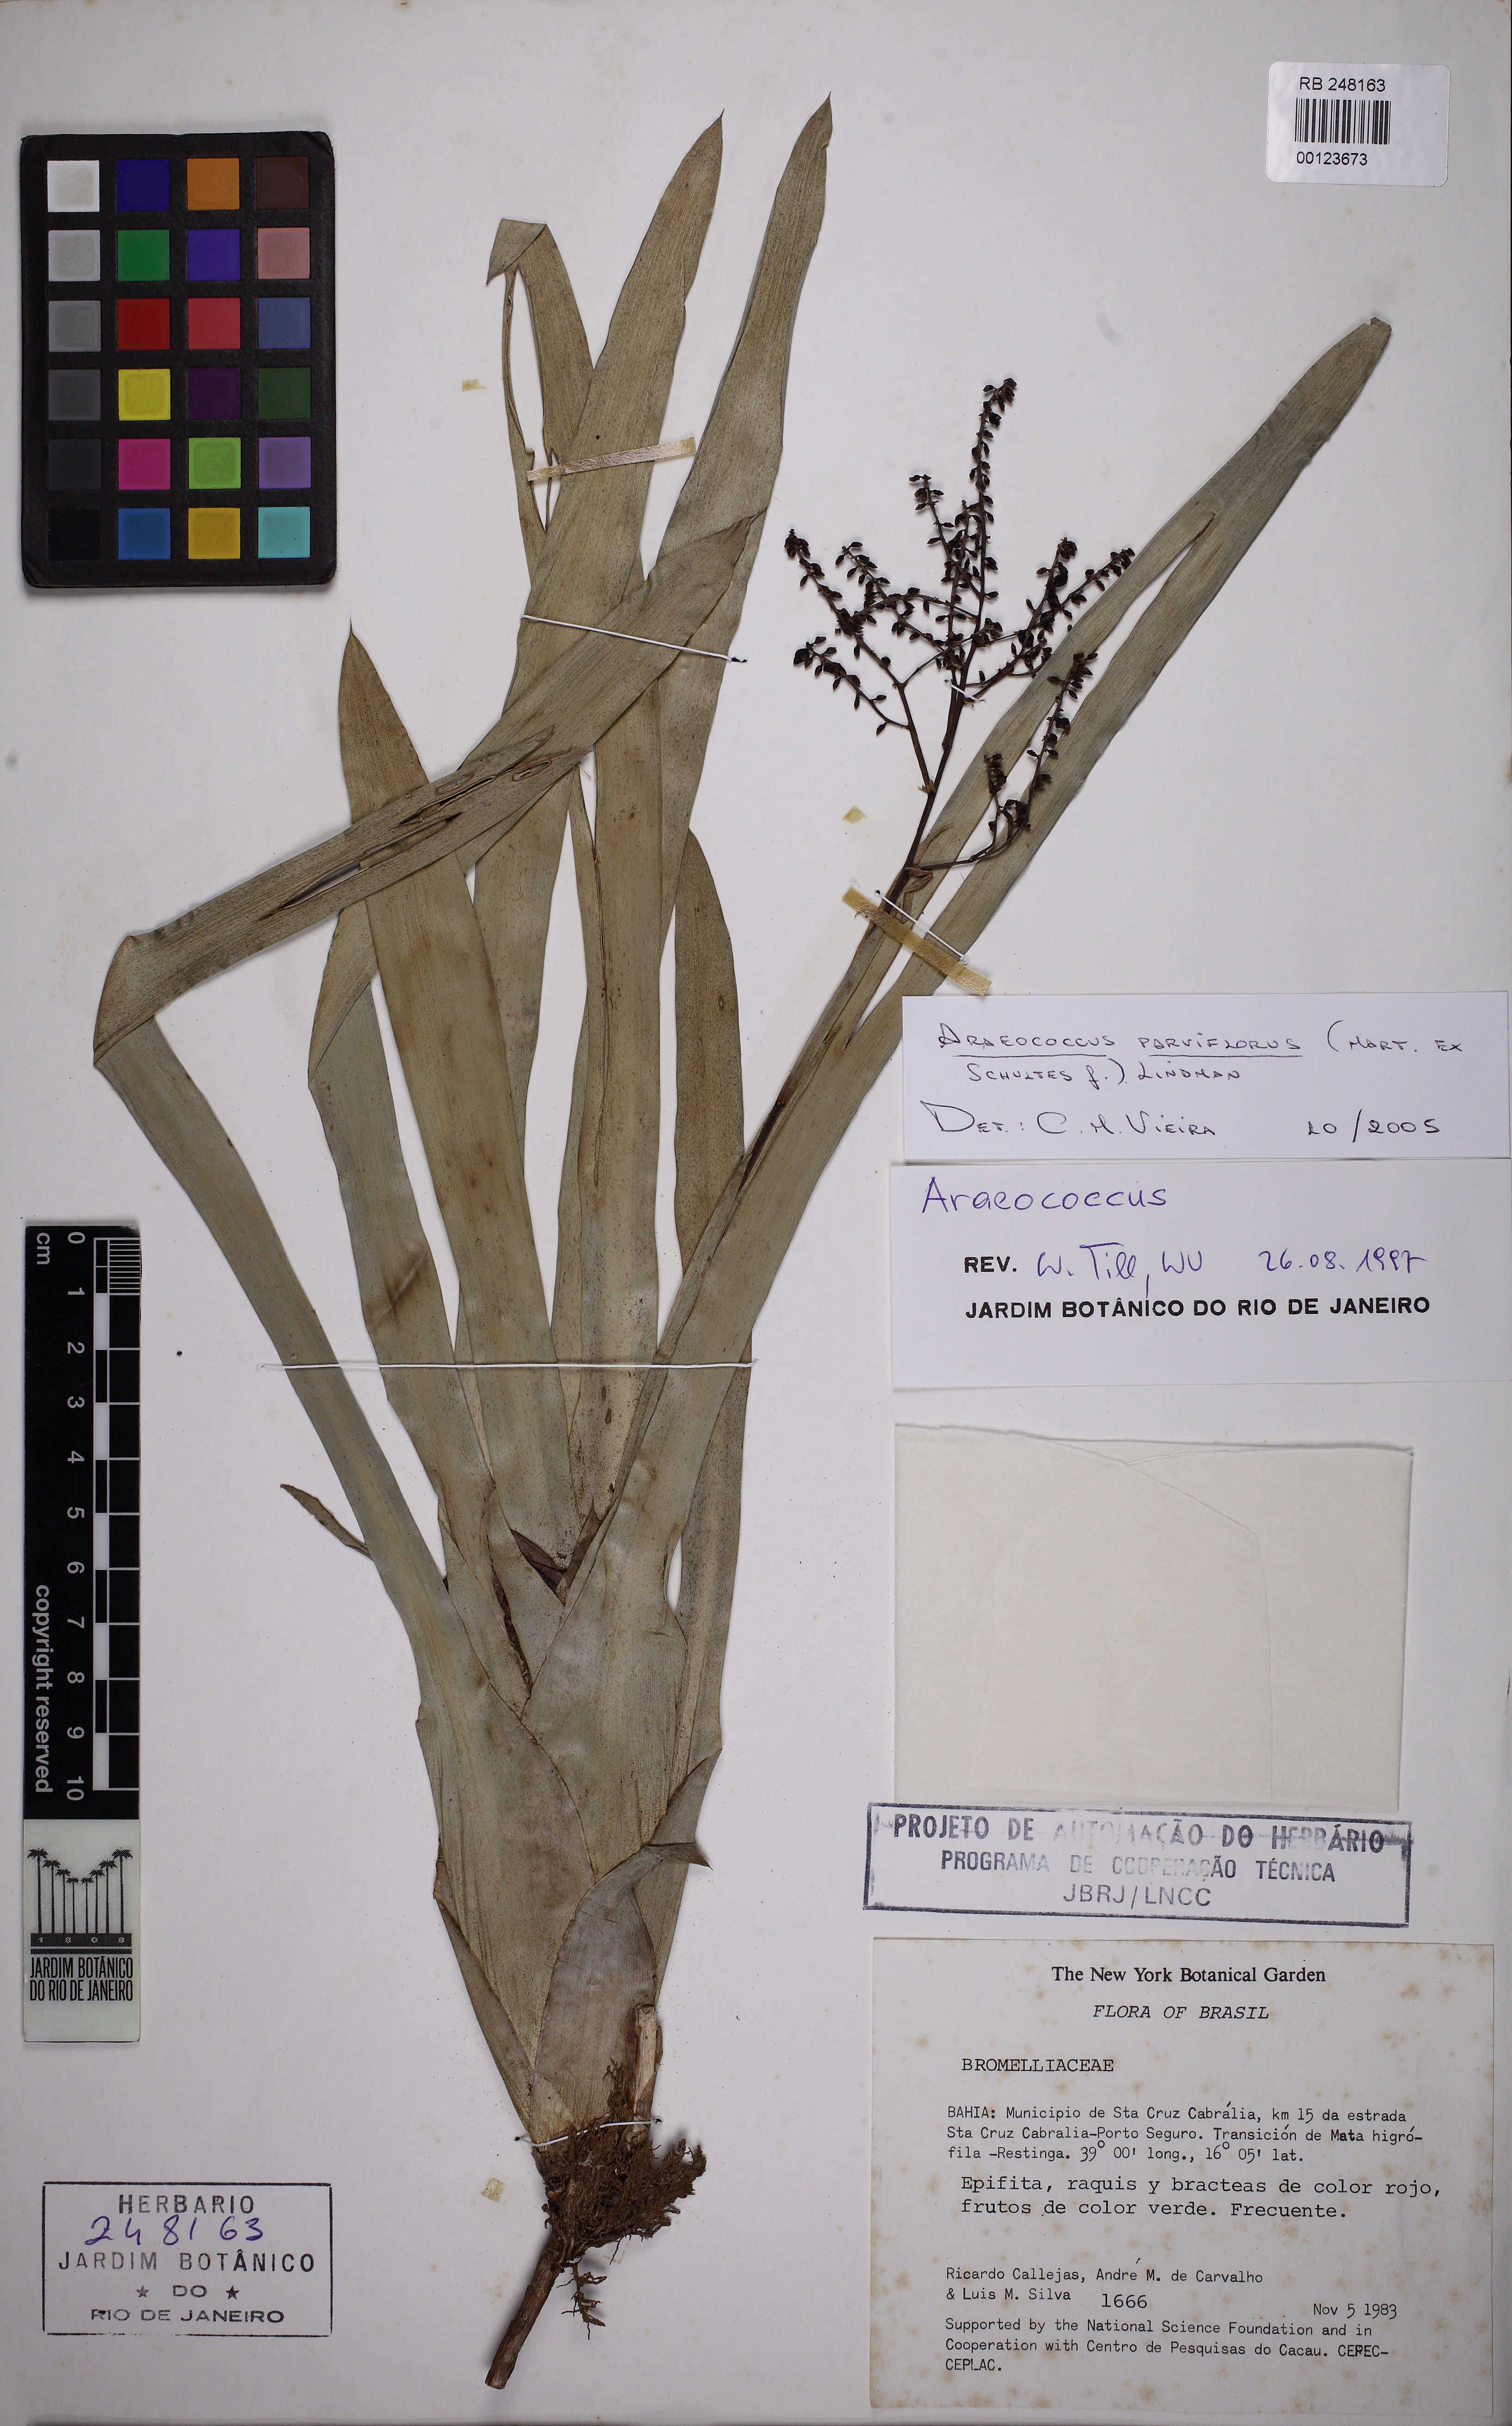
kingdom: Plantae
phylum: Tracheophyta
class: Liliopsida
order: Poales
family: Bromeliaceae
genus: Pseudaraeococcus
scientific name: Pseudaraeococcus parviflorus
